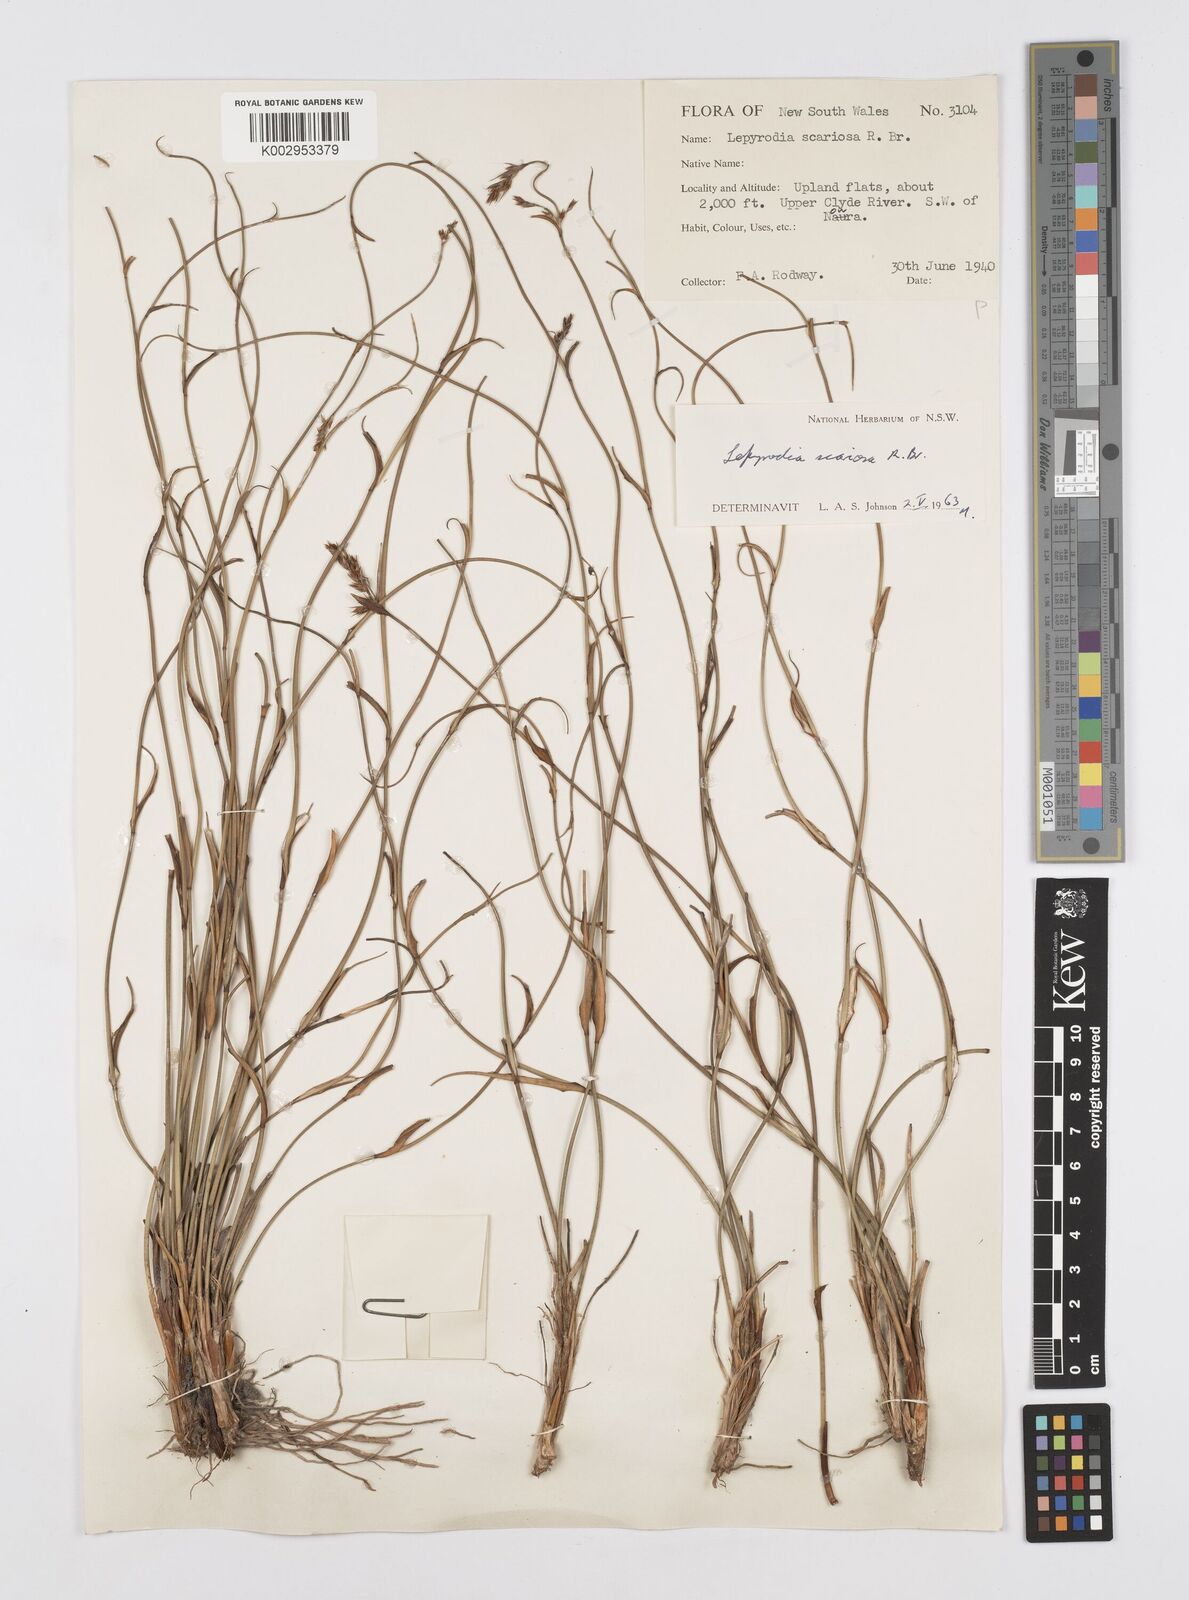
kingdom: Plantae
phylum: Tracheophyta
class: Liliopsida
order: Poales
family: Restionaceae
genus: Lepyrodia
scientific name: Lepyrodia scariosa
